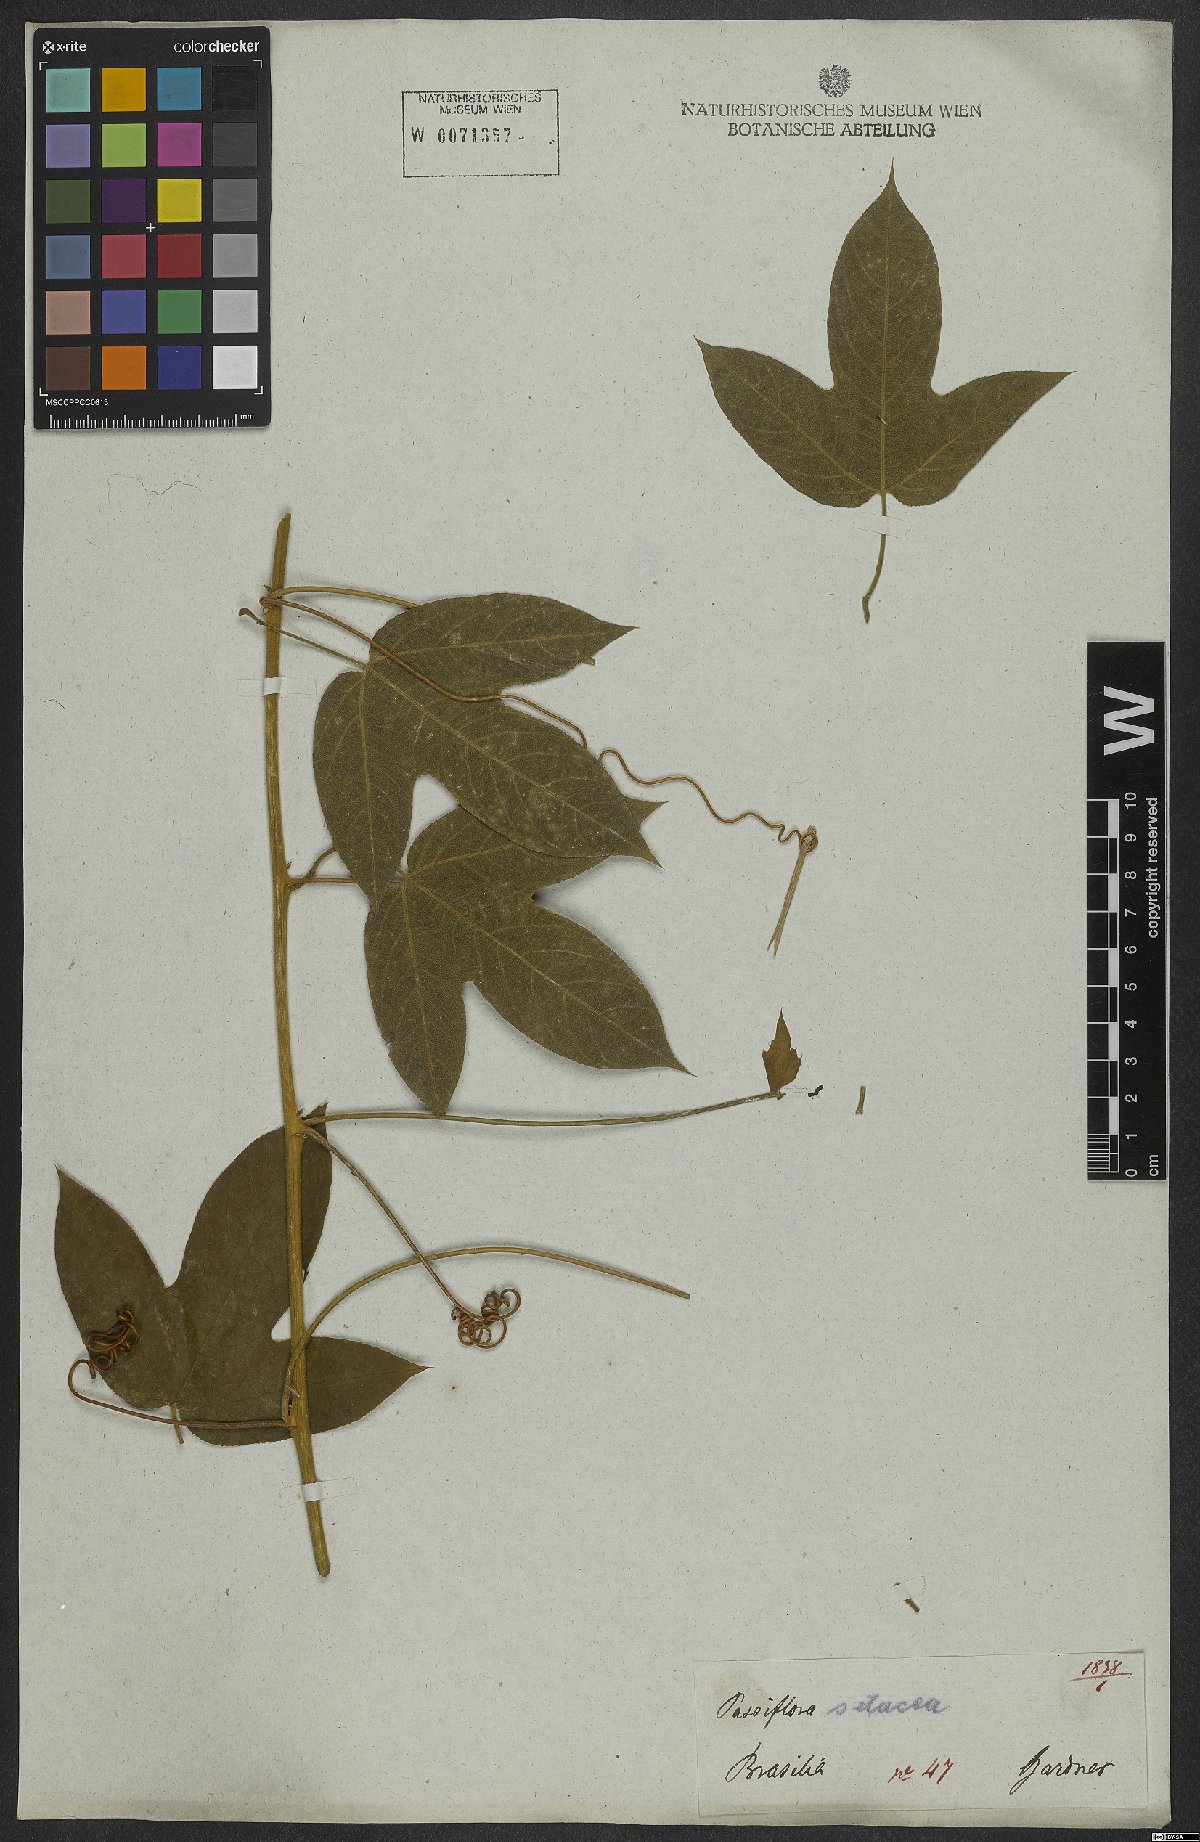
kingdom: Plantae
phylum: Tracheophyta
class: Magnoliopsida
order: Malpighiales
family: Passifloraceae
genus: Passiflora
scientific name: Passiflora setacea
